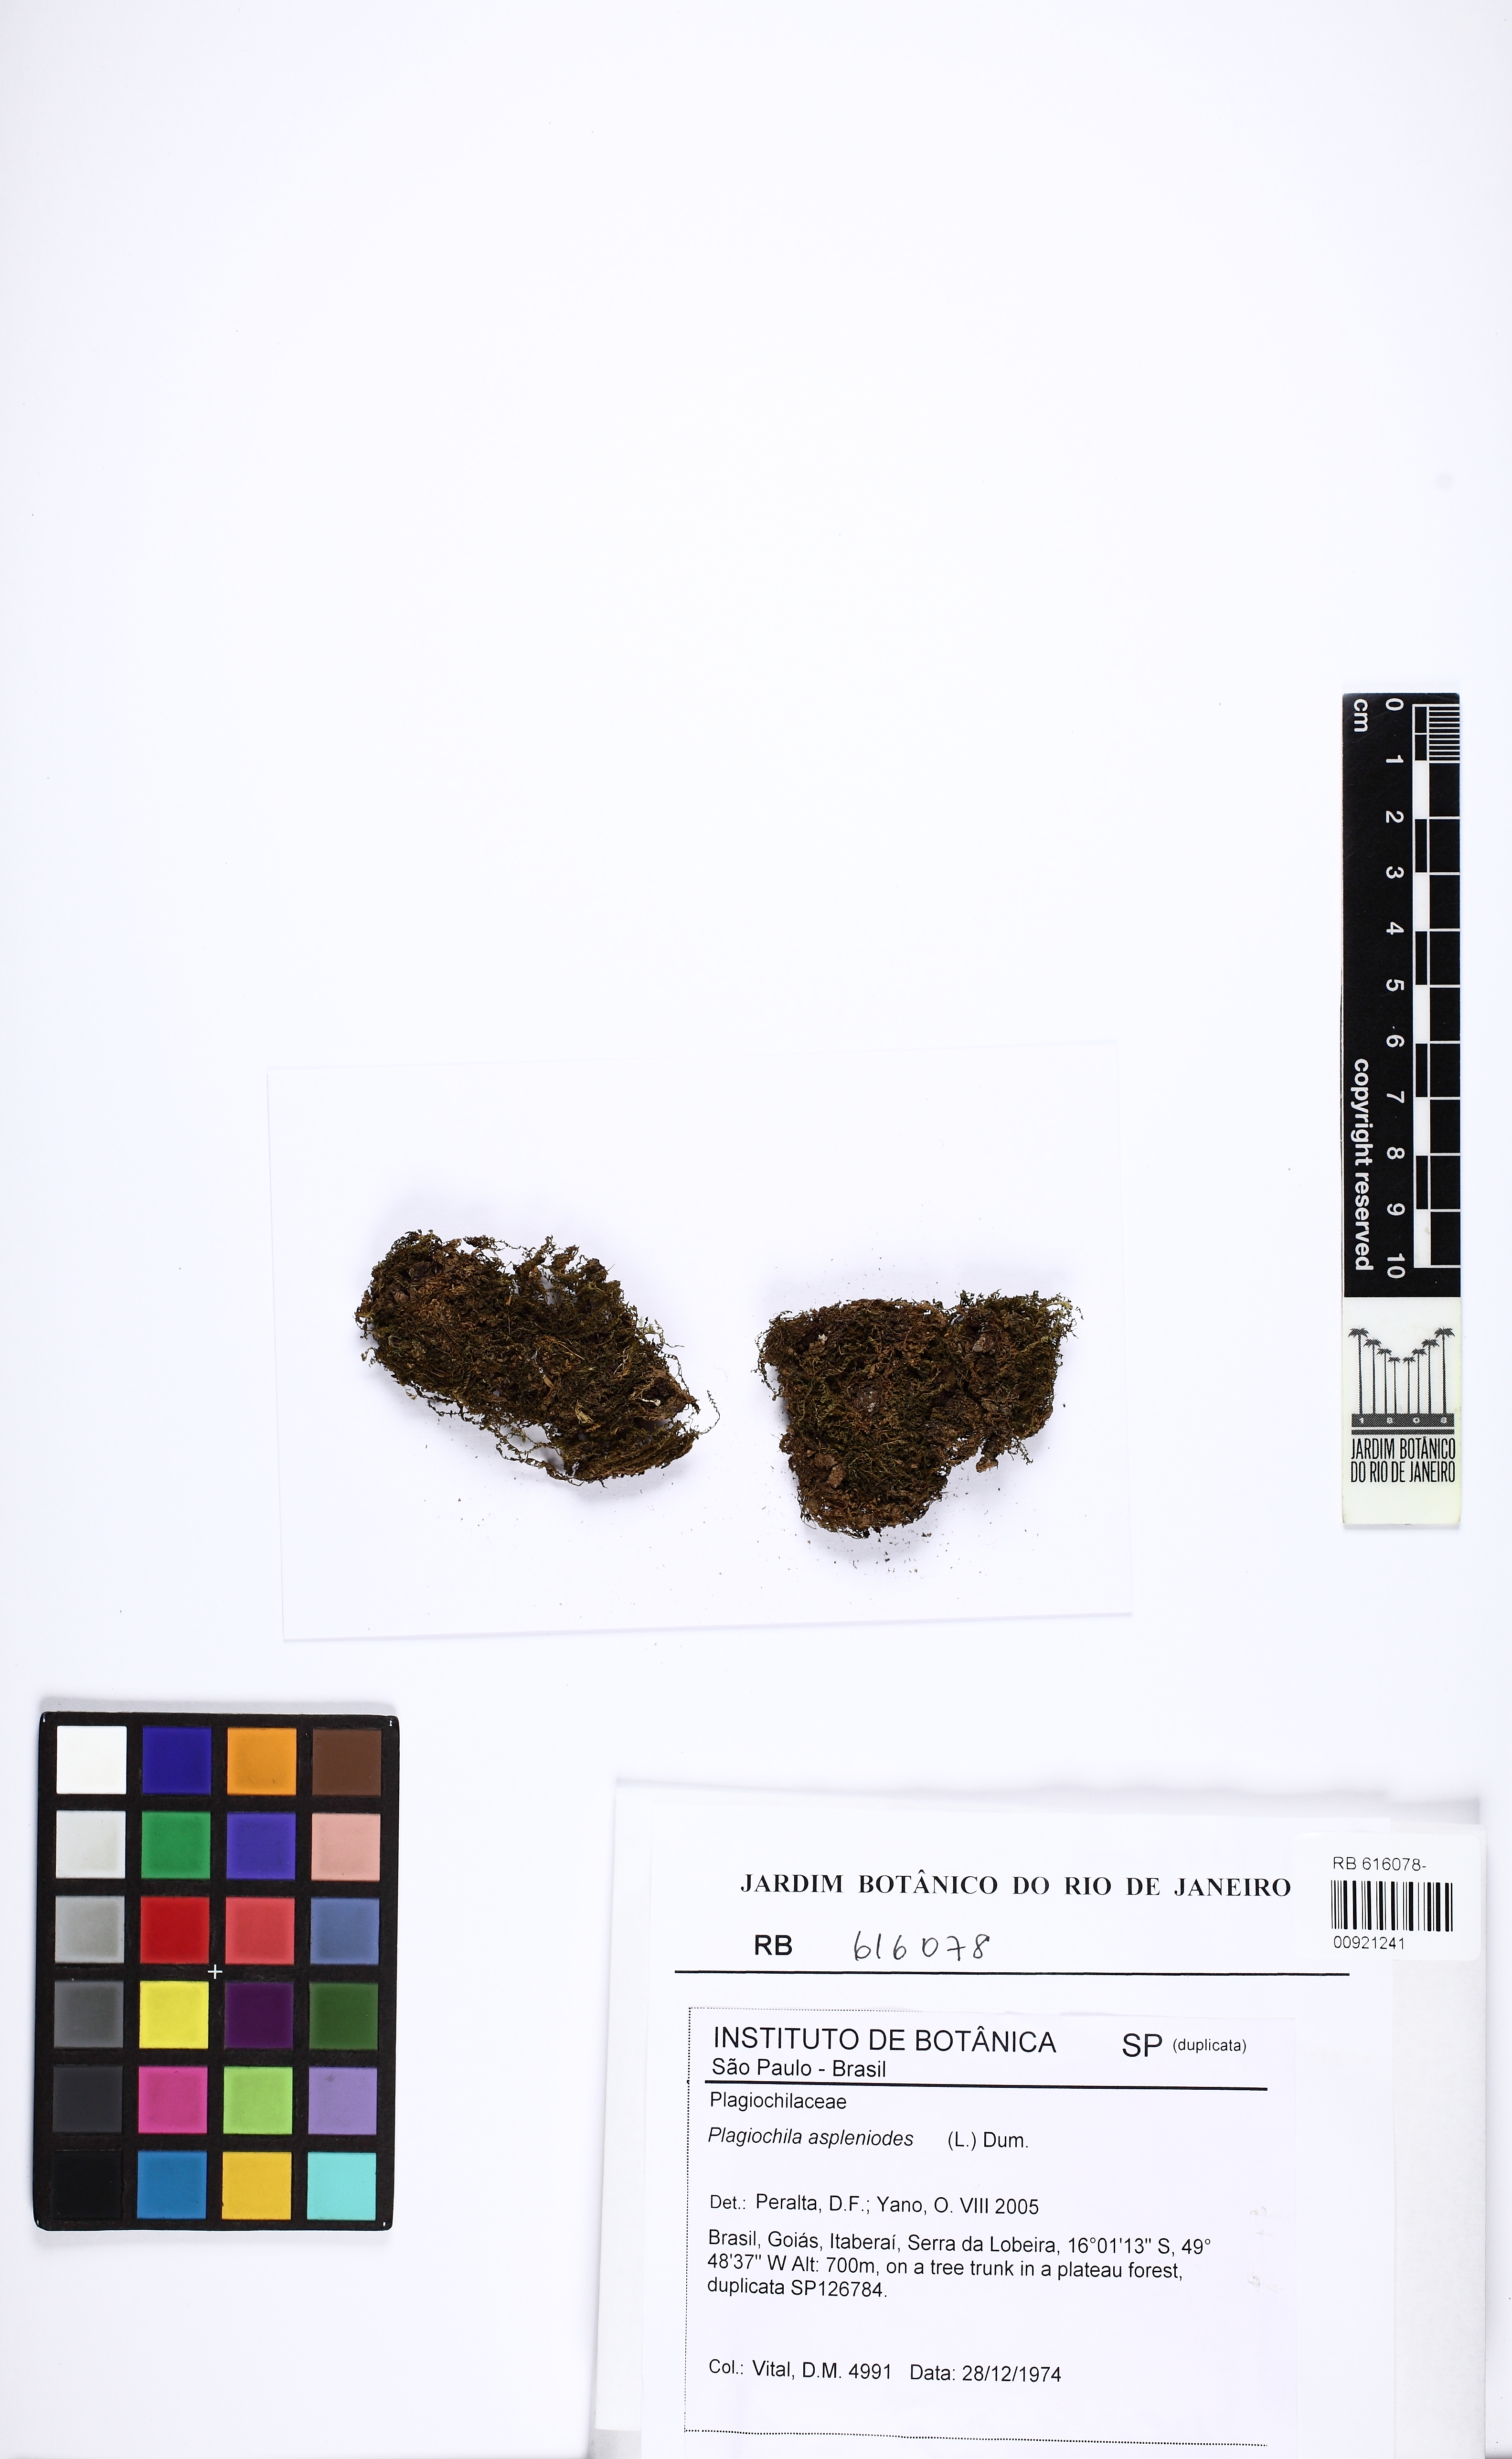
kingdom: Plantae
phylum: Marchantiophyta
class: Jungermanniopsida
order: Jungermanniales
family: Plagiochilaceae
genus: Plagiochila
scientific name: Plagiochila asplenioides
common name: Greater featherwort
